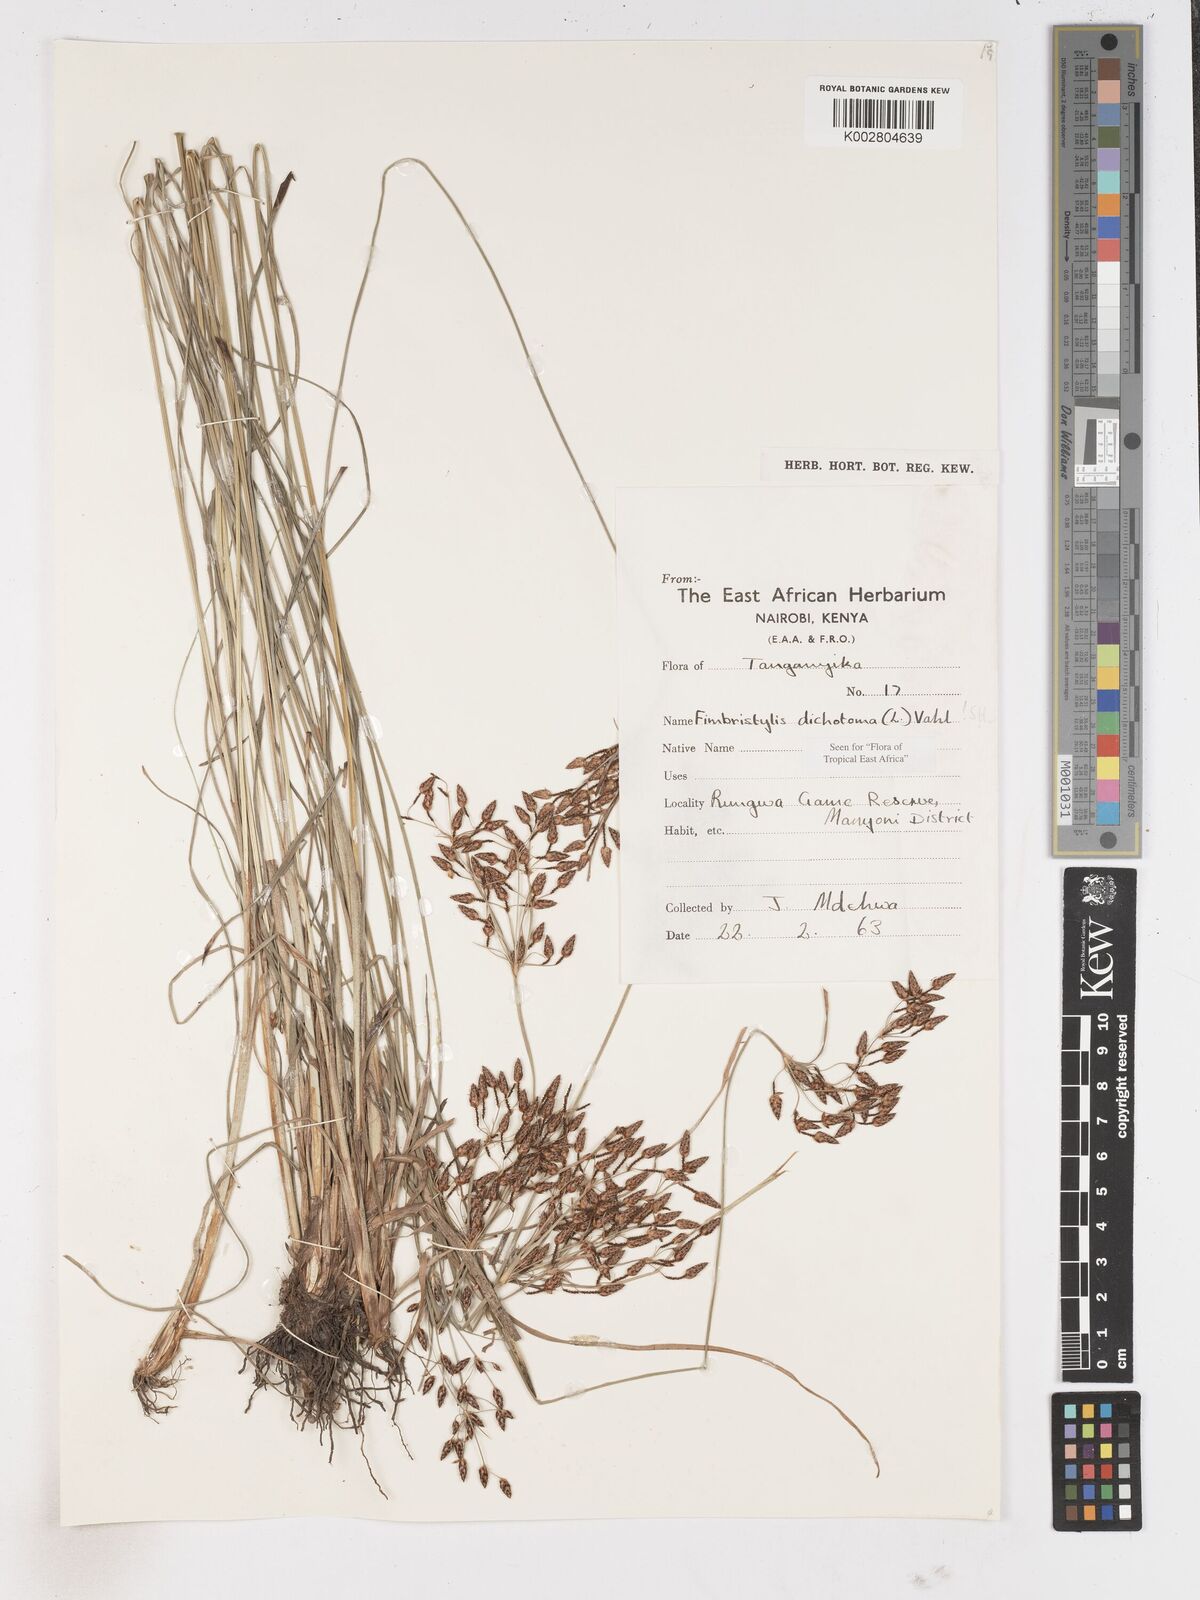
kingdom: Plantae
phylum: Tracheophyta
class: Liliopsida
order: Poales
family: Cyperaceae
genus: Fimbristylis
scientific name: Fimbristylis dichotoma
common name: Forked fimbry
